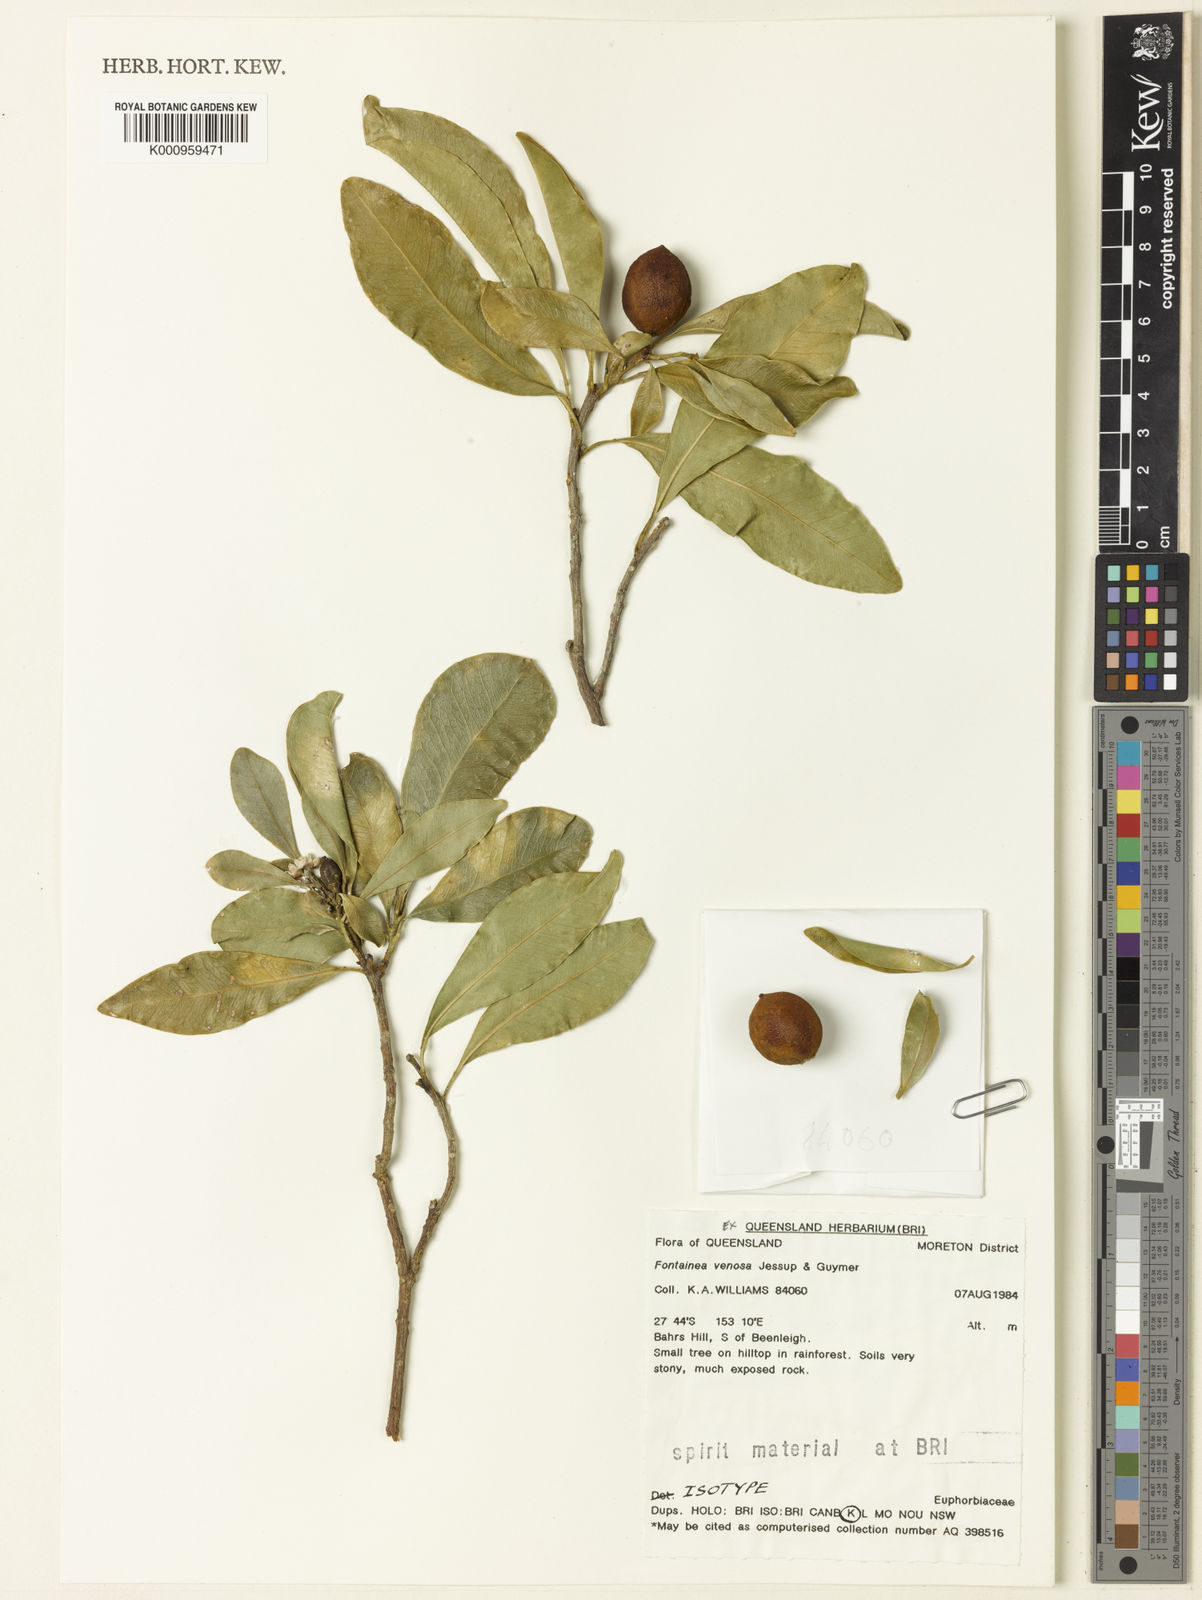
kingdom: Plantae
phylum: Tracheophyta
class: Magnoliopsida
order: Malpighiales
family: Euphorbiaceae
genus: Fontainea
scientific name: Fontainea venosa
